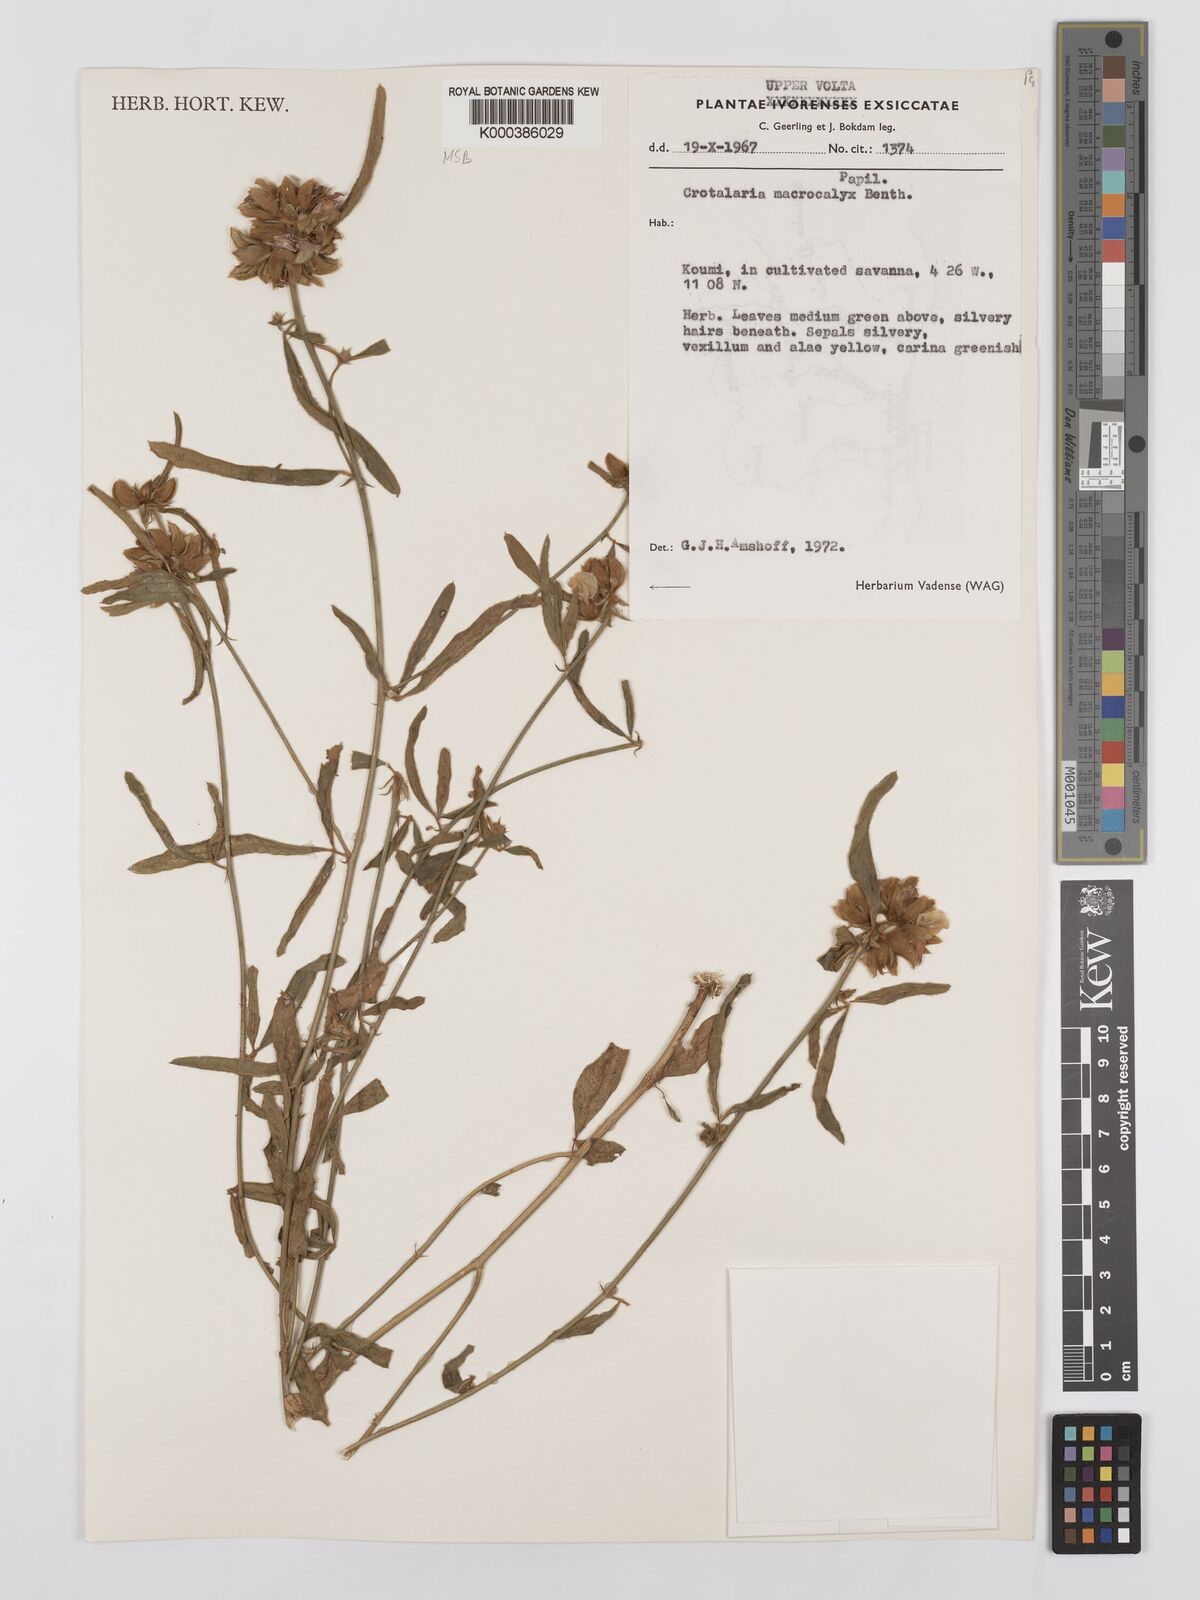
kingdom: Plantae
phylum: Tracheophyta
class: Magnoliopsida
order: Fabales
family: Fabaceae
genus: Crotalaria
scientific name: Crotalaria macrocalyx
